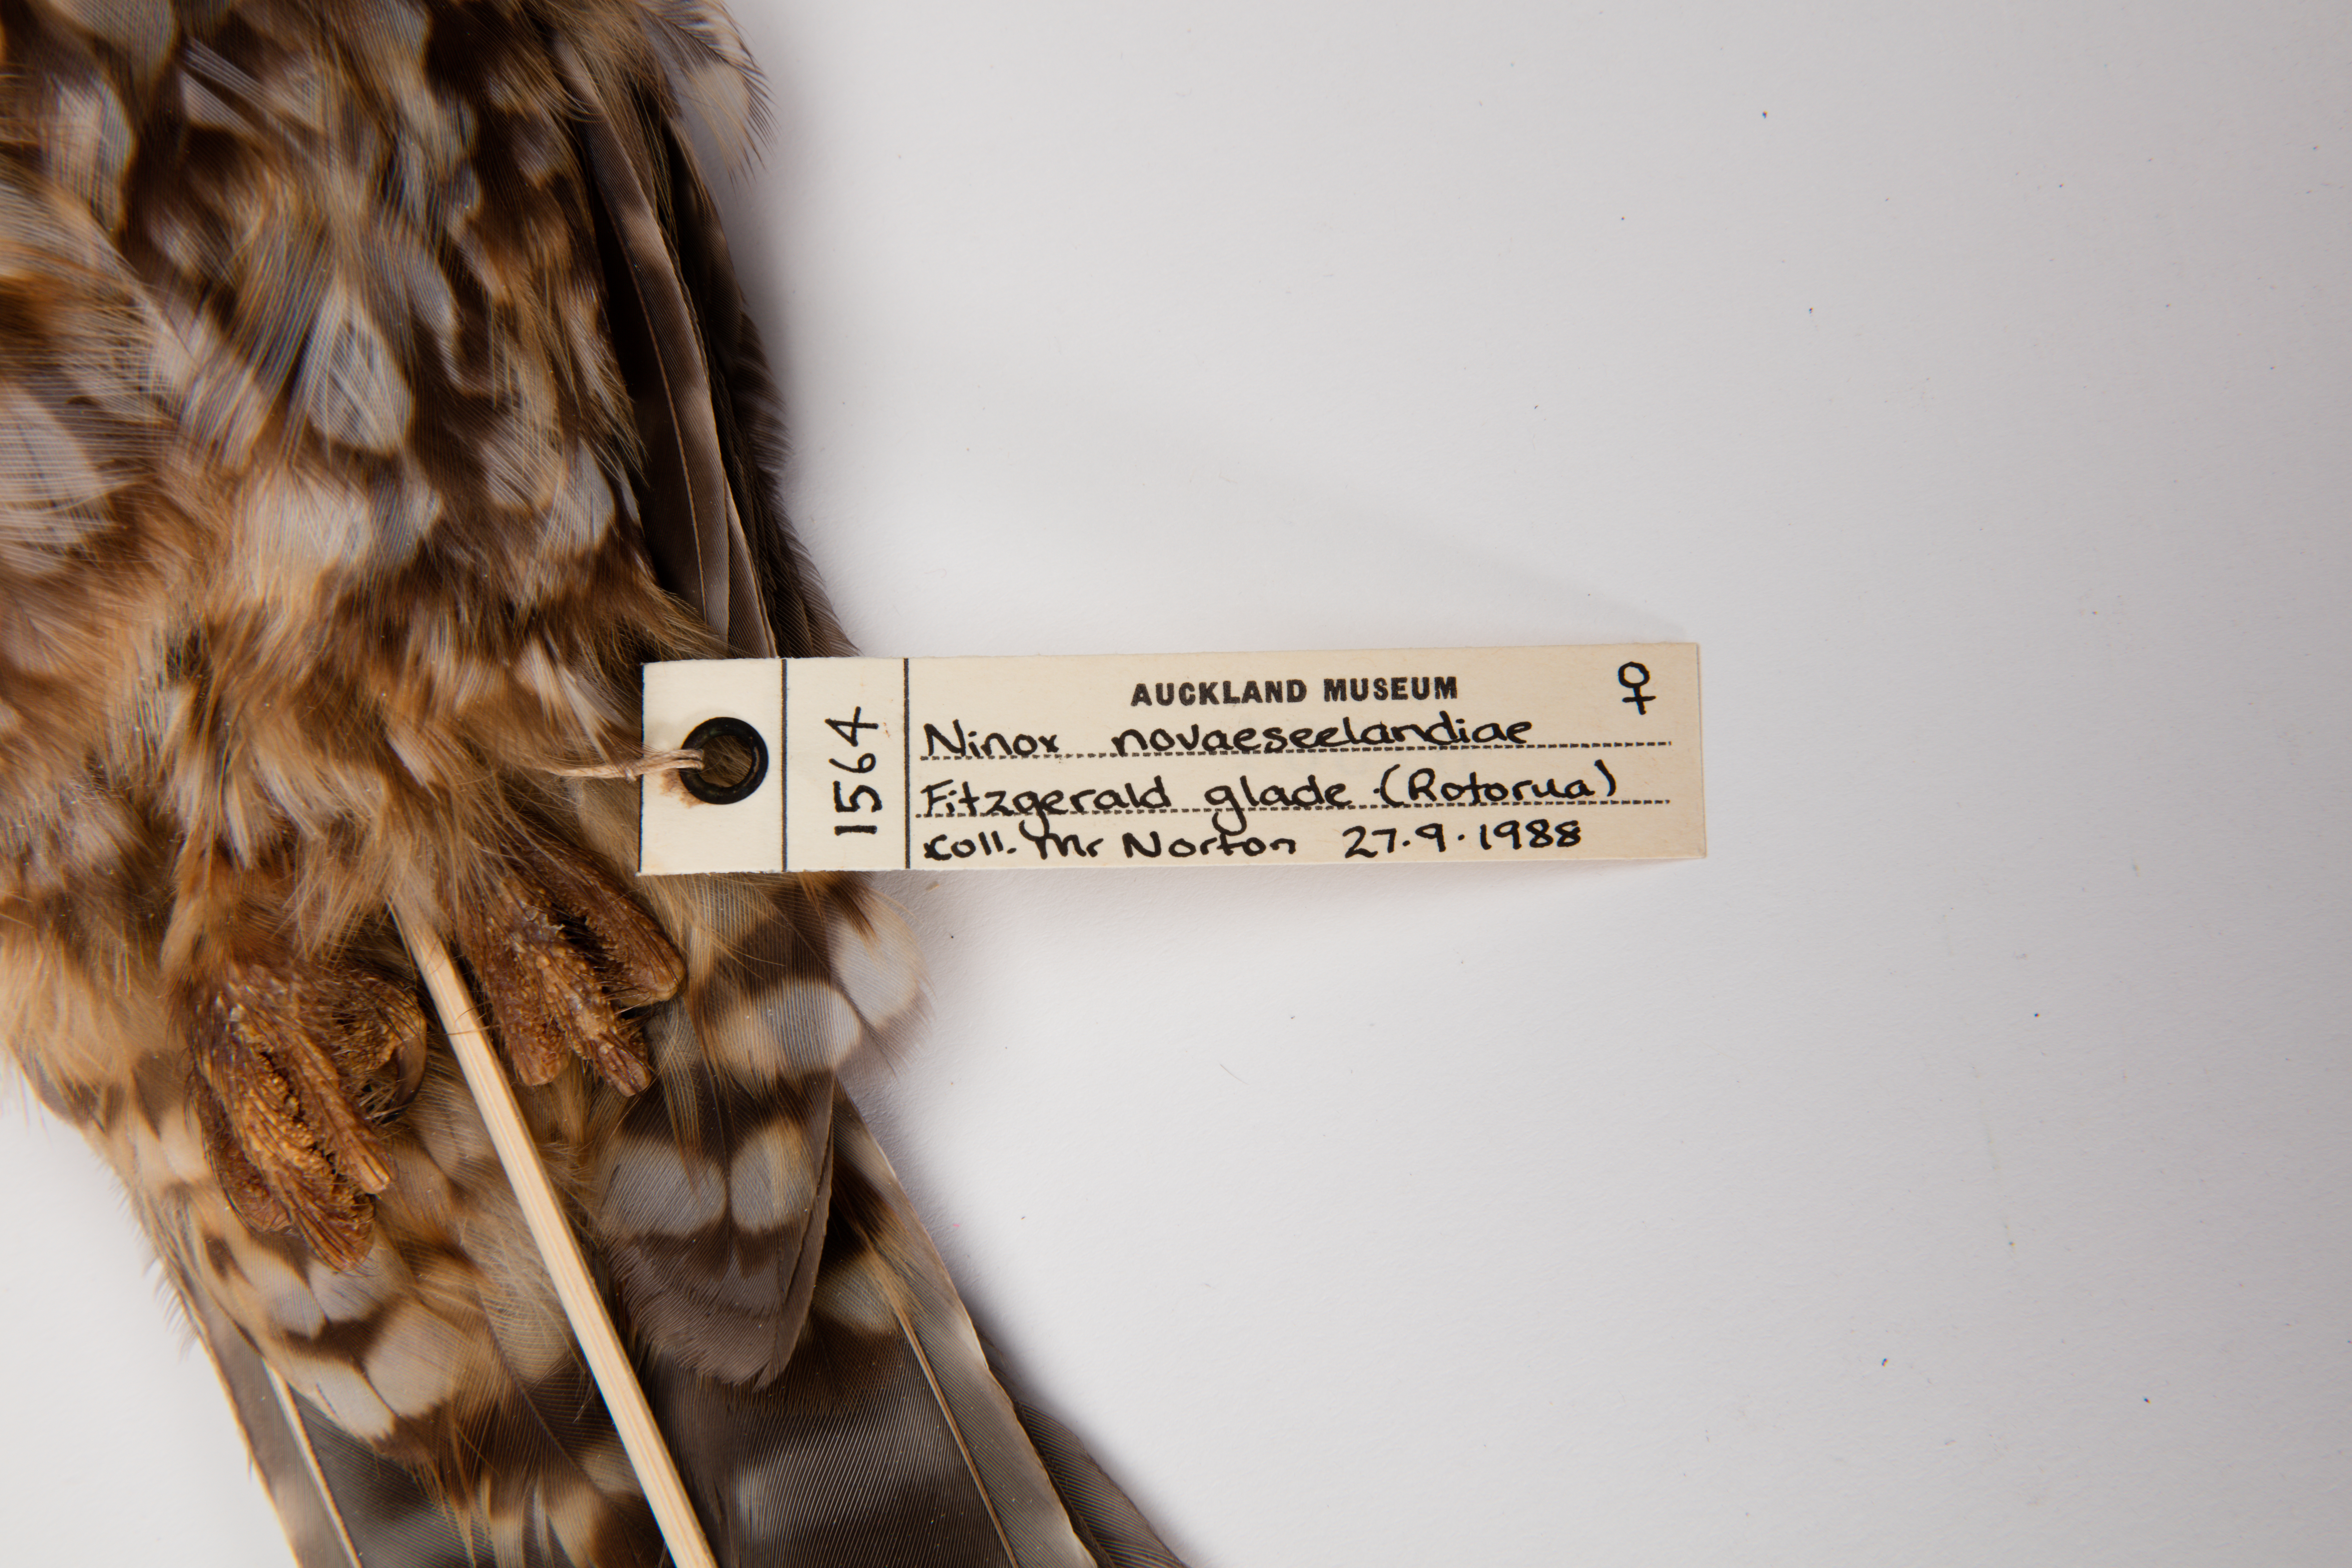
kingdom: Animalia
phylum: Chordata
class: Aves
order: Strigiformes
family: Strigidae
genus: Ninox
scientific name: Ninox novaeseelandiae
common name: Morepork
